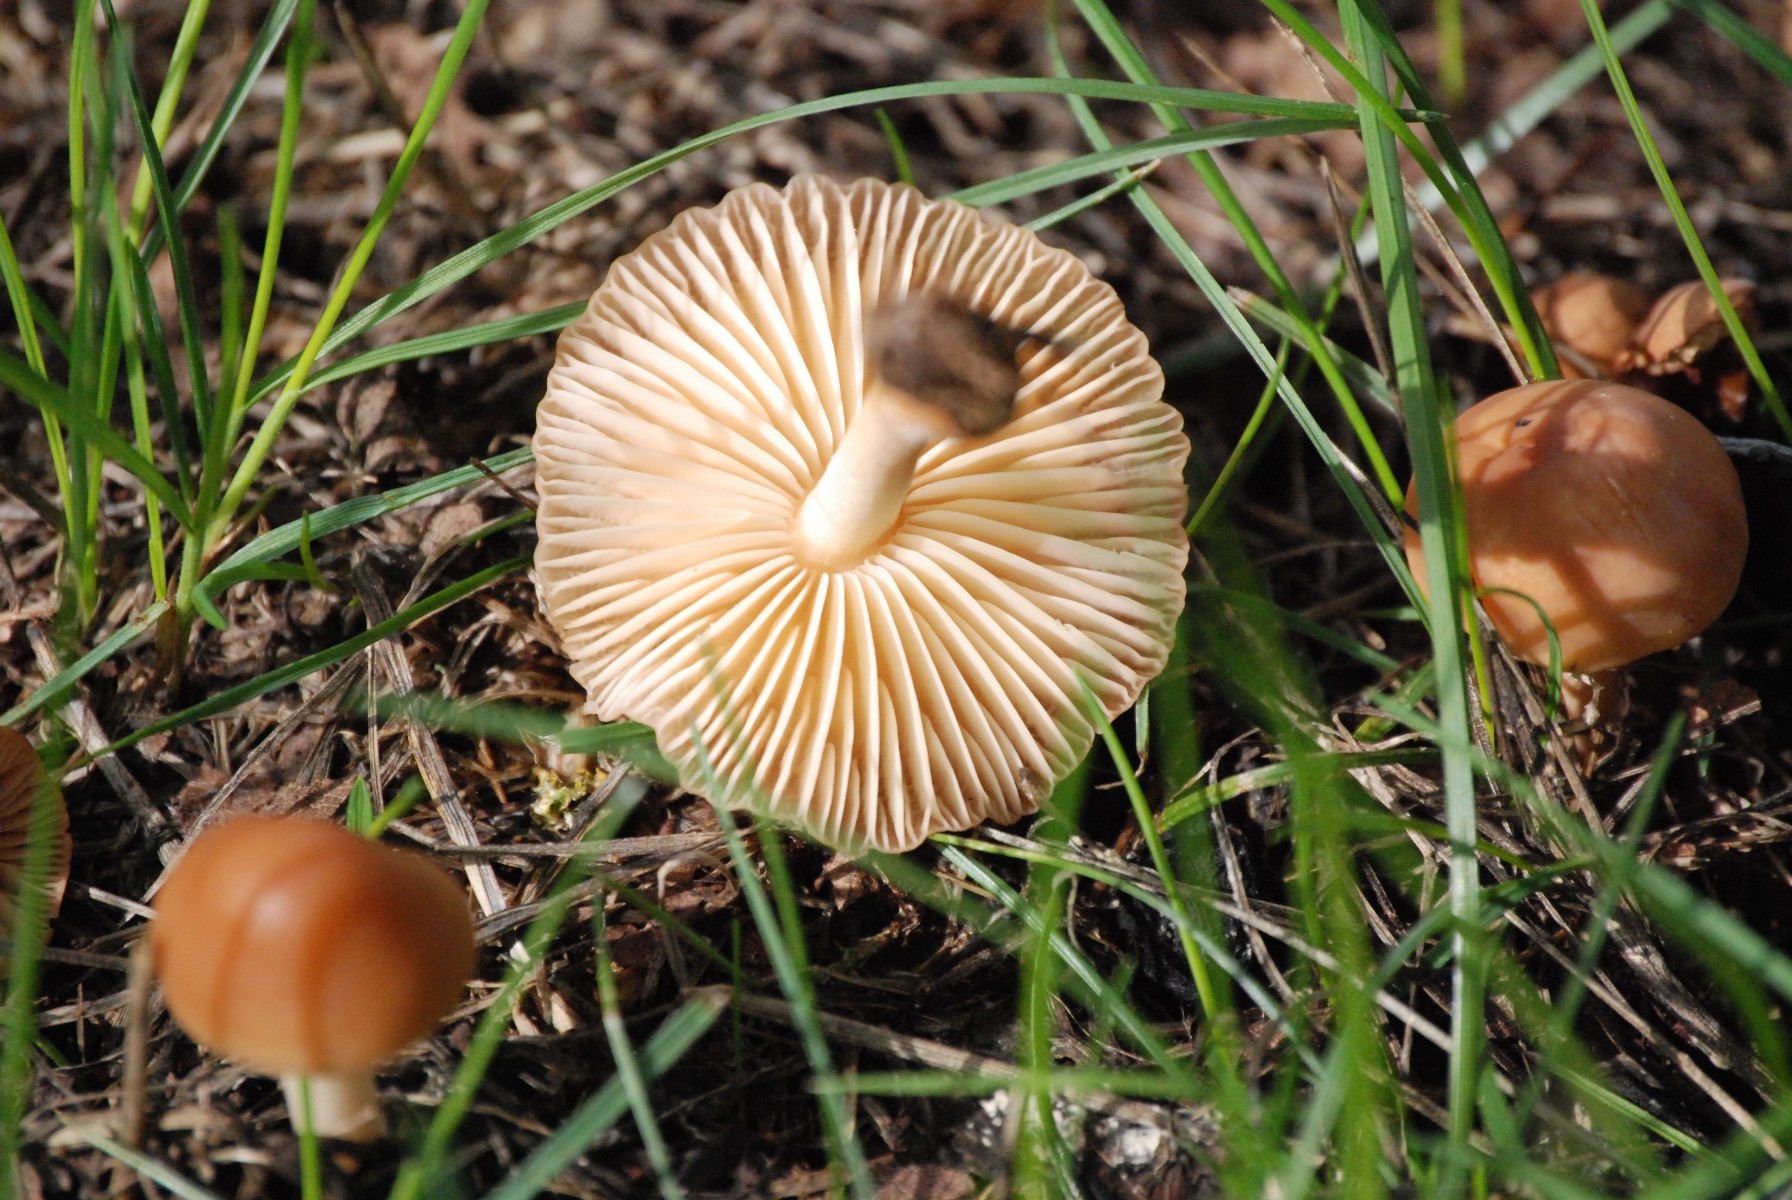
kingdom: Fungi
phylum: Basidiomycota
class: Agaricomycetes
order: Agaricales
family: Marasmiaceae
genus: Marasmius
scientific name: Marasmius oreades
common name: elledans-bruskhat
